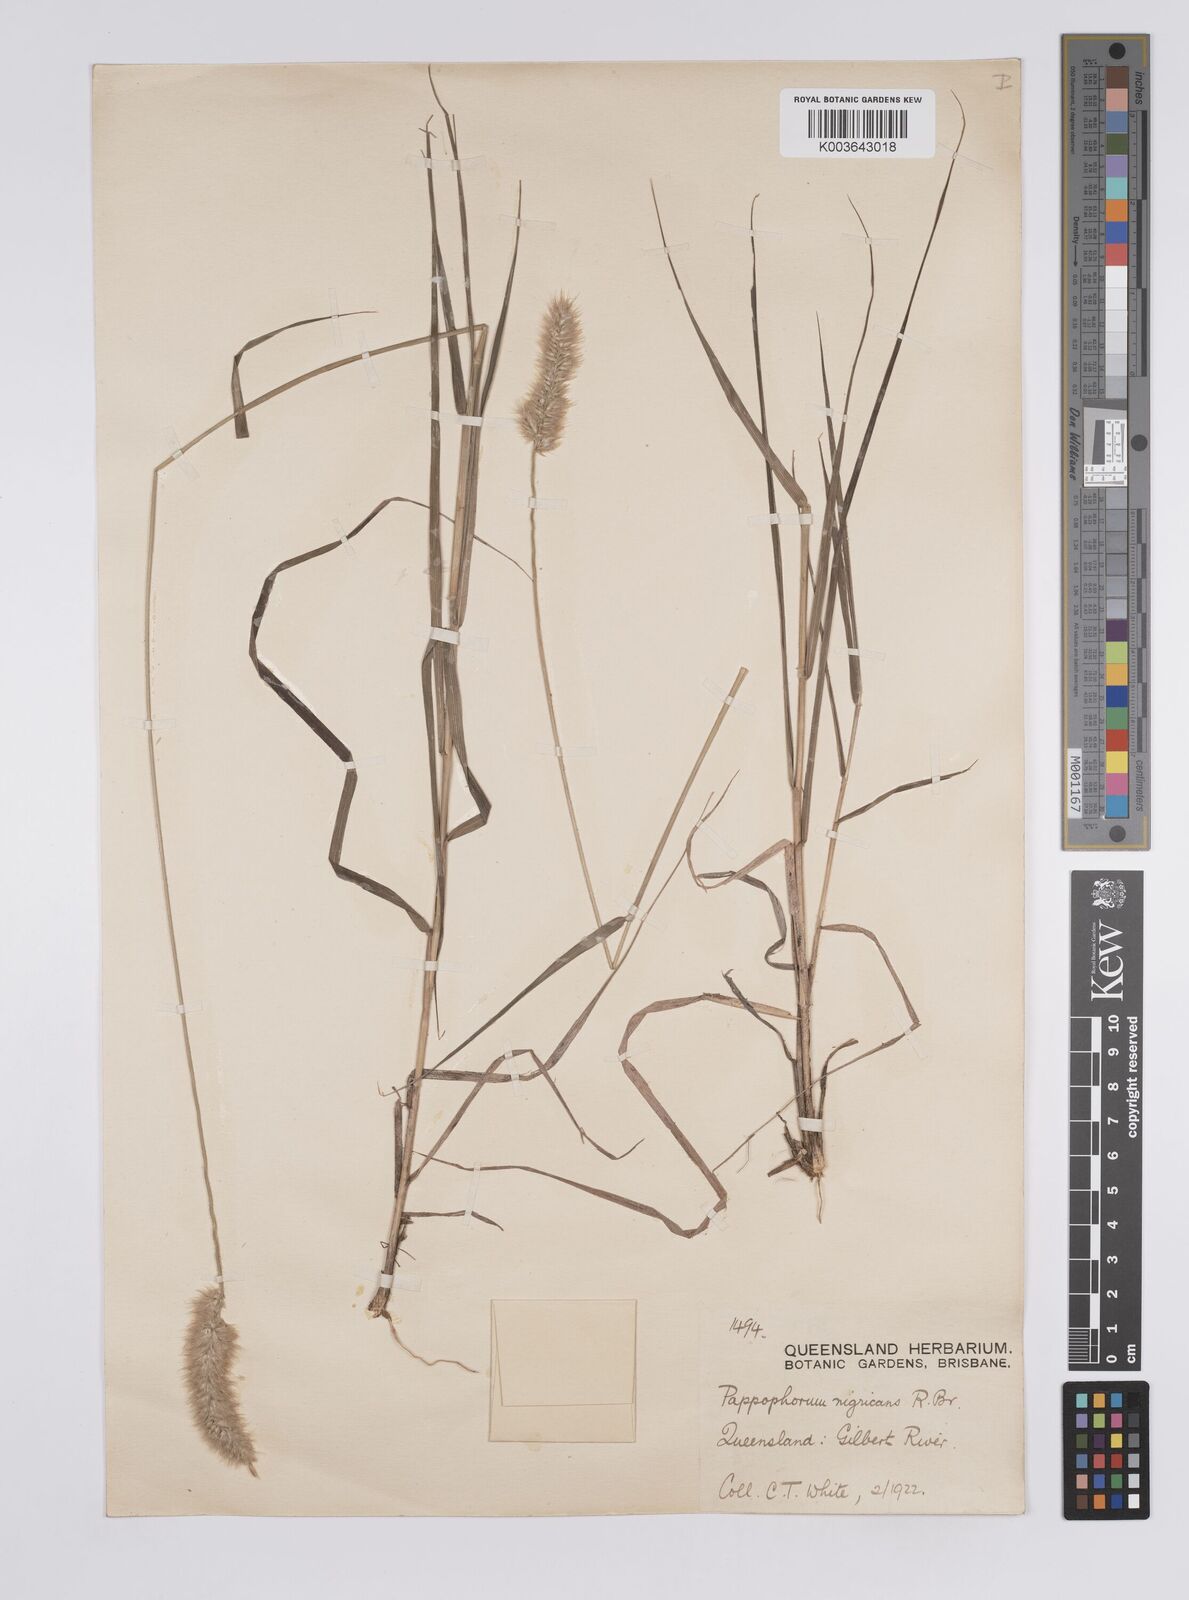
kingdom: Plantae
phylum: Tracheophyta
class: Liliopsida
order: Poales
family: Poaceae
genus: Enneapogon
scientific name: Enneapogon purpurascens
